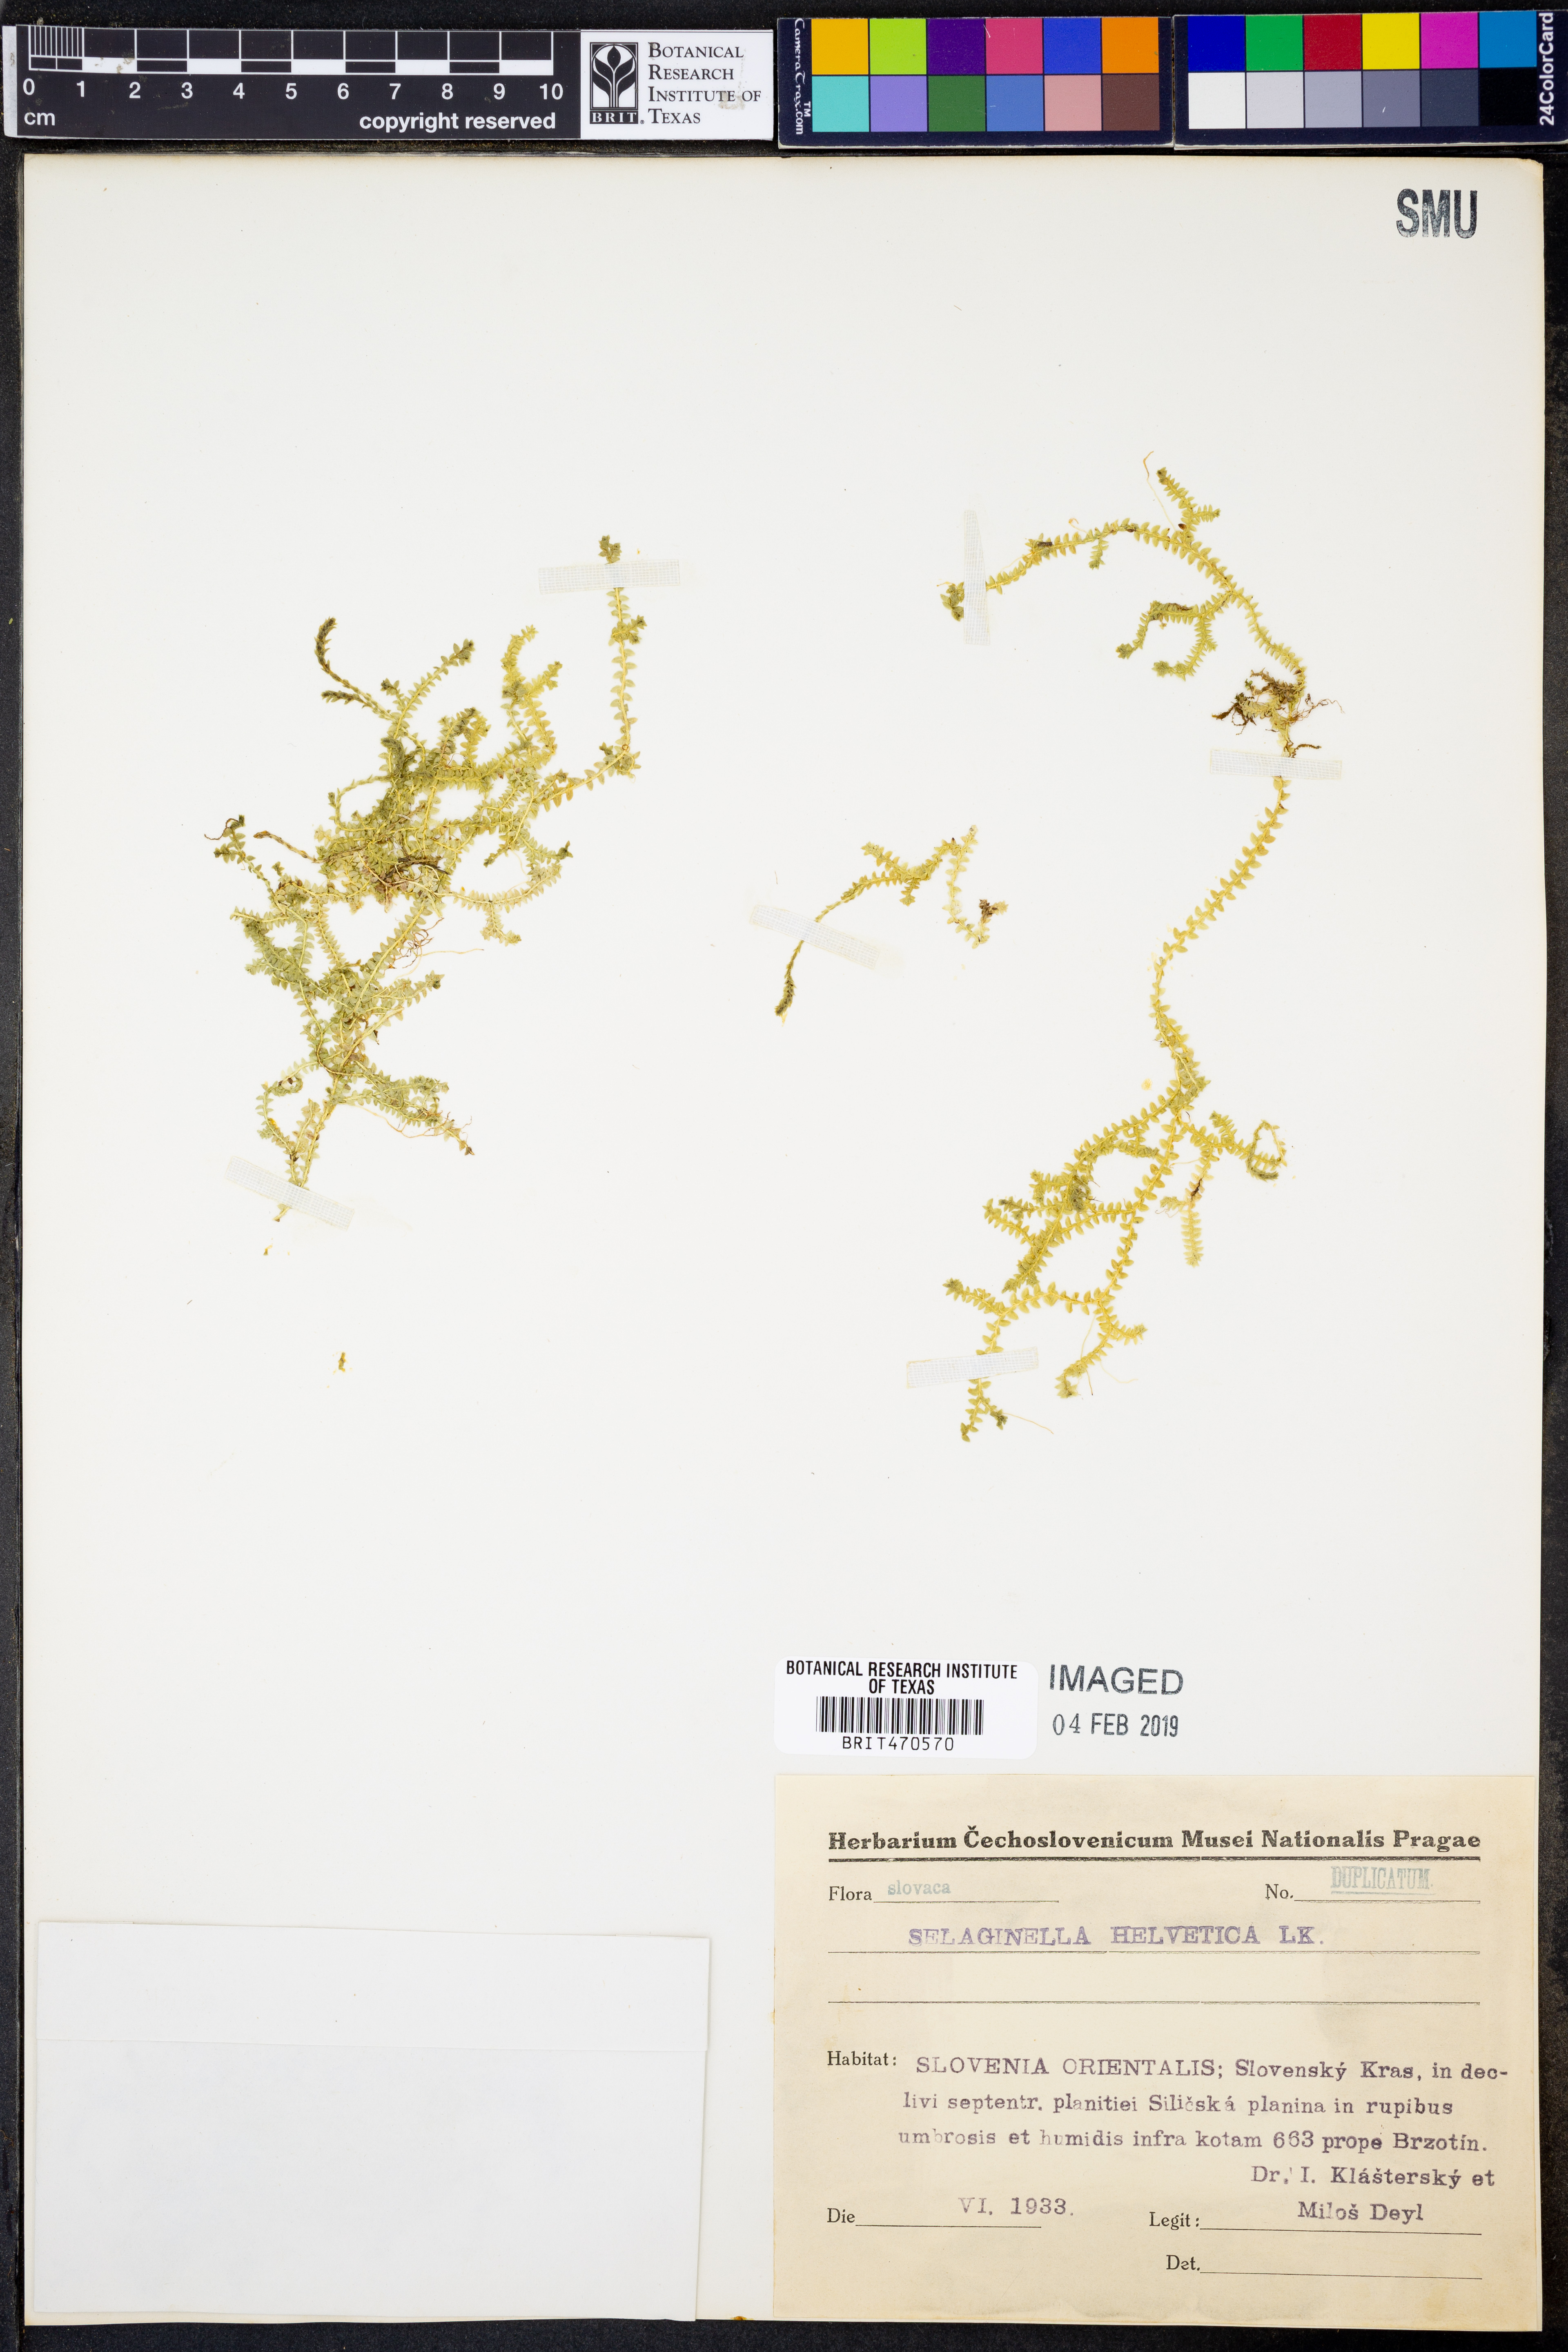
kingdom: Plantae
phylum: Tracheophyta
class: Lycopodiopsida
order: Selaginellales
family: Selaginellaceae
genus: Selaginella
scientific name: Selaginella helvetica
